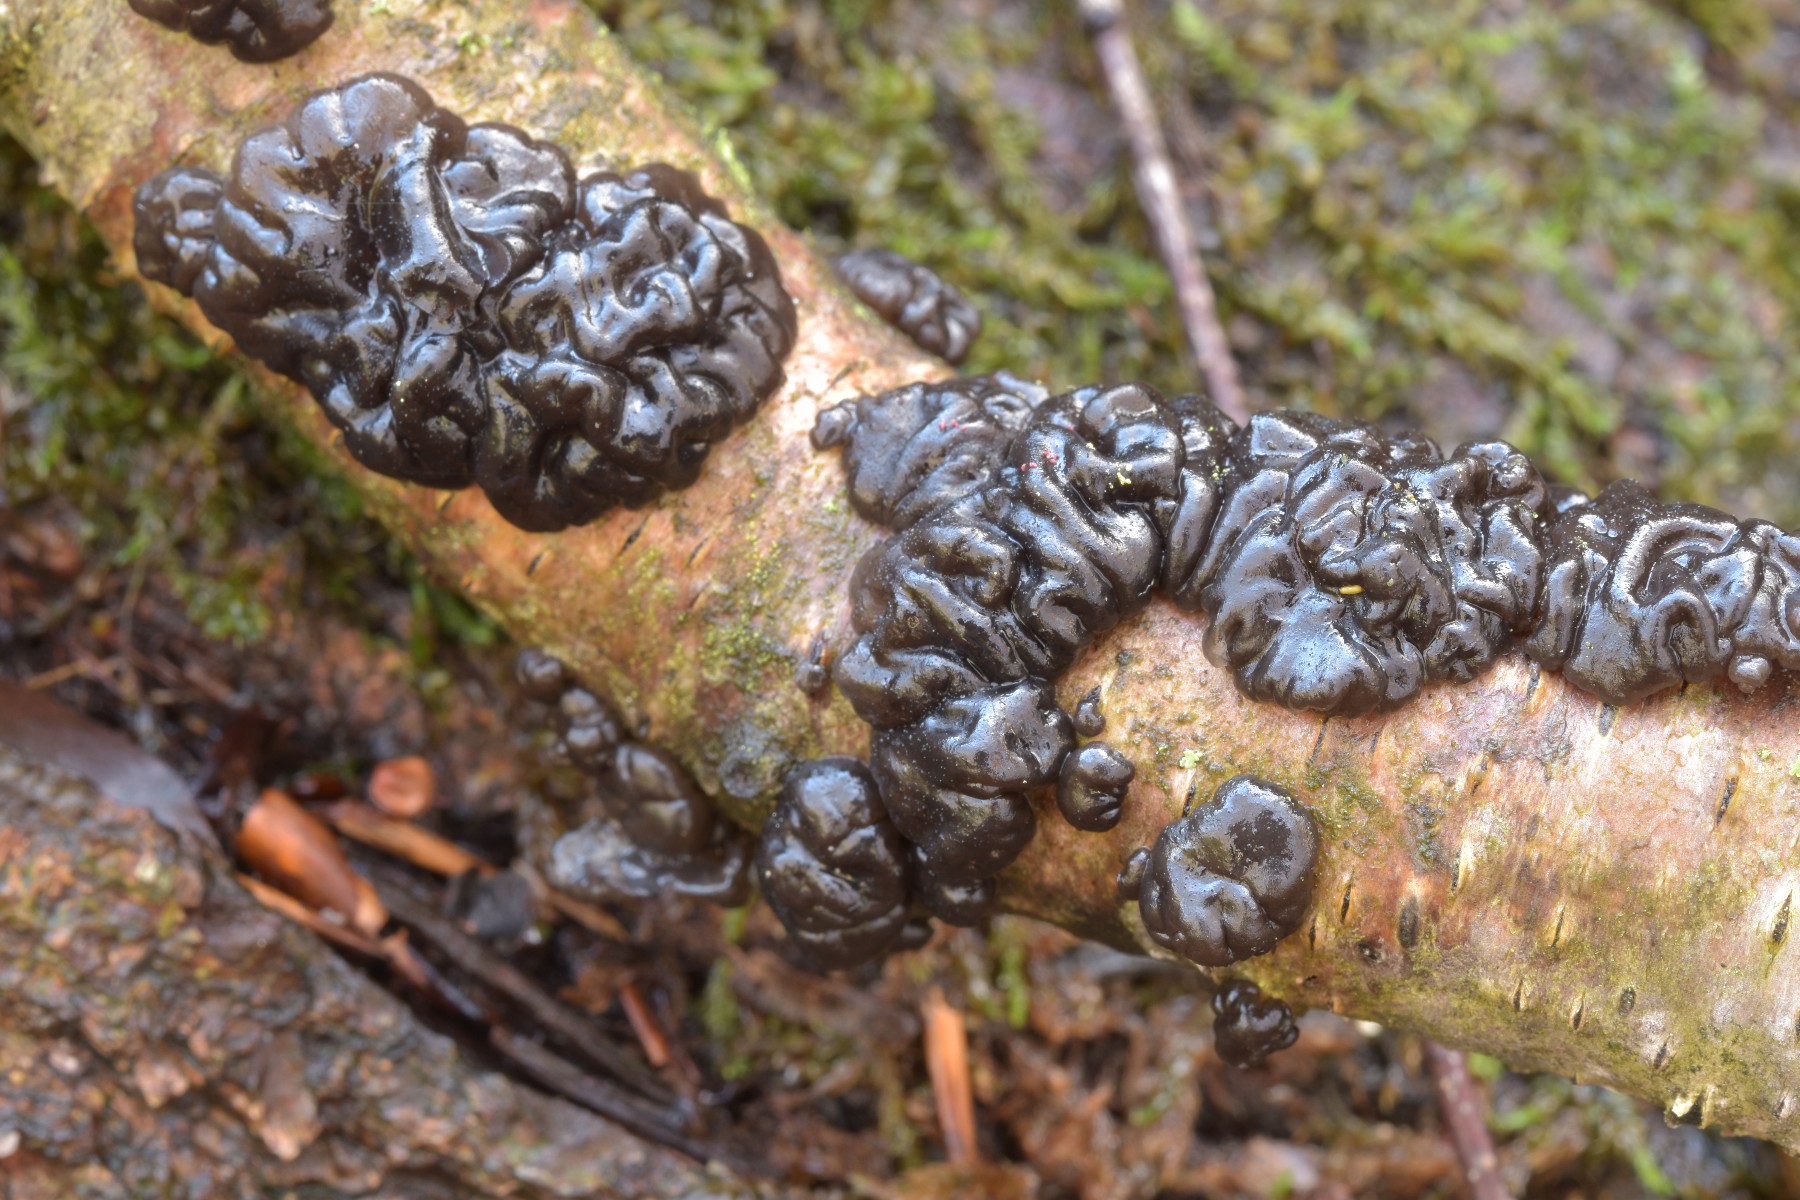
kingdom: Fungi
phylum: Basidiomycota
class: Agaricomycetes
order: Auriculariales
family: Auriculariaceae
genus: Exidia
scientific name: Exidia nigricans
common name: almindelig bævretop
